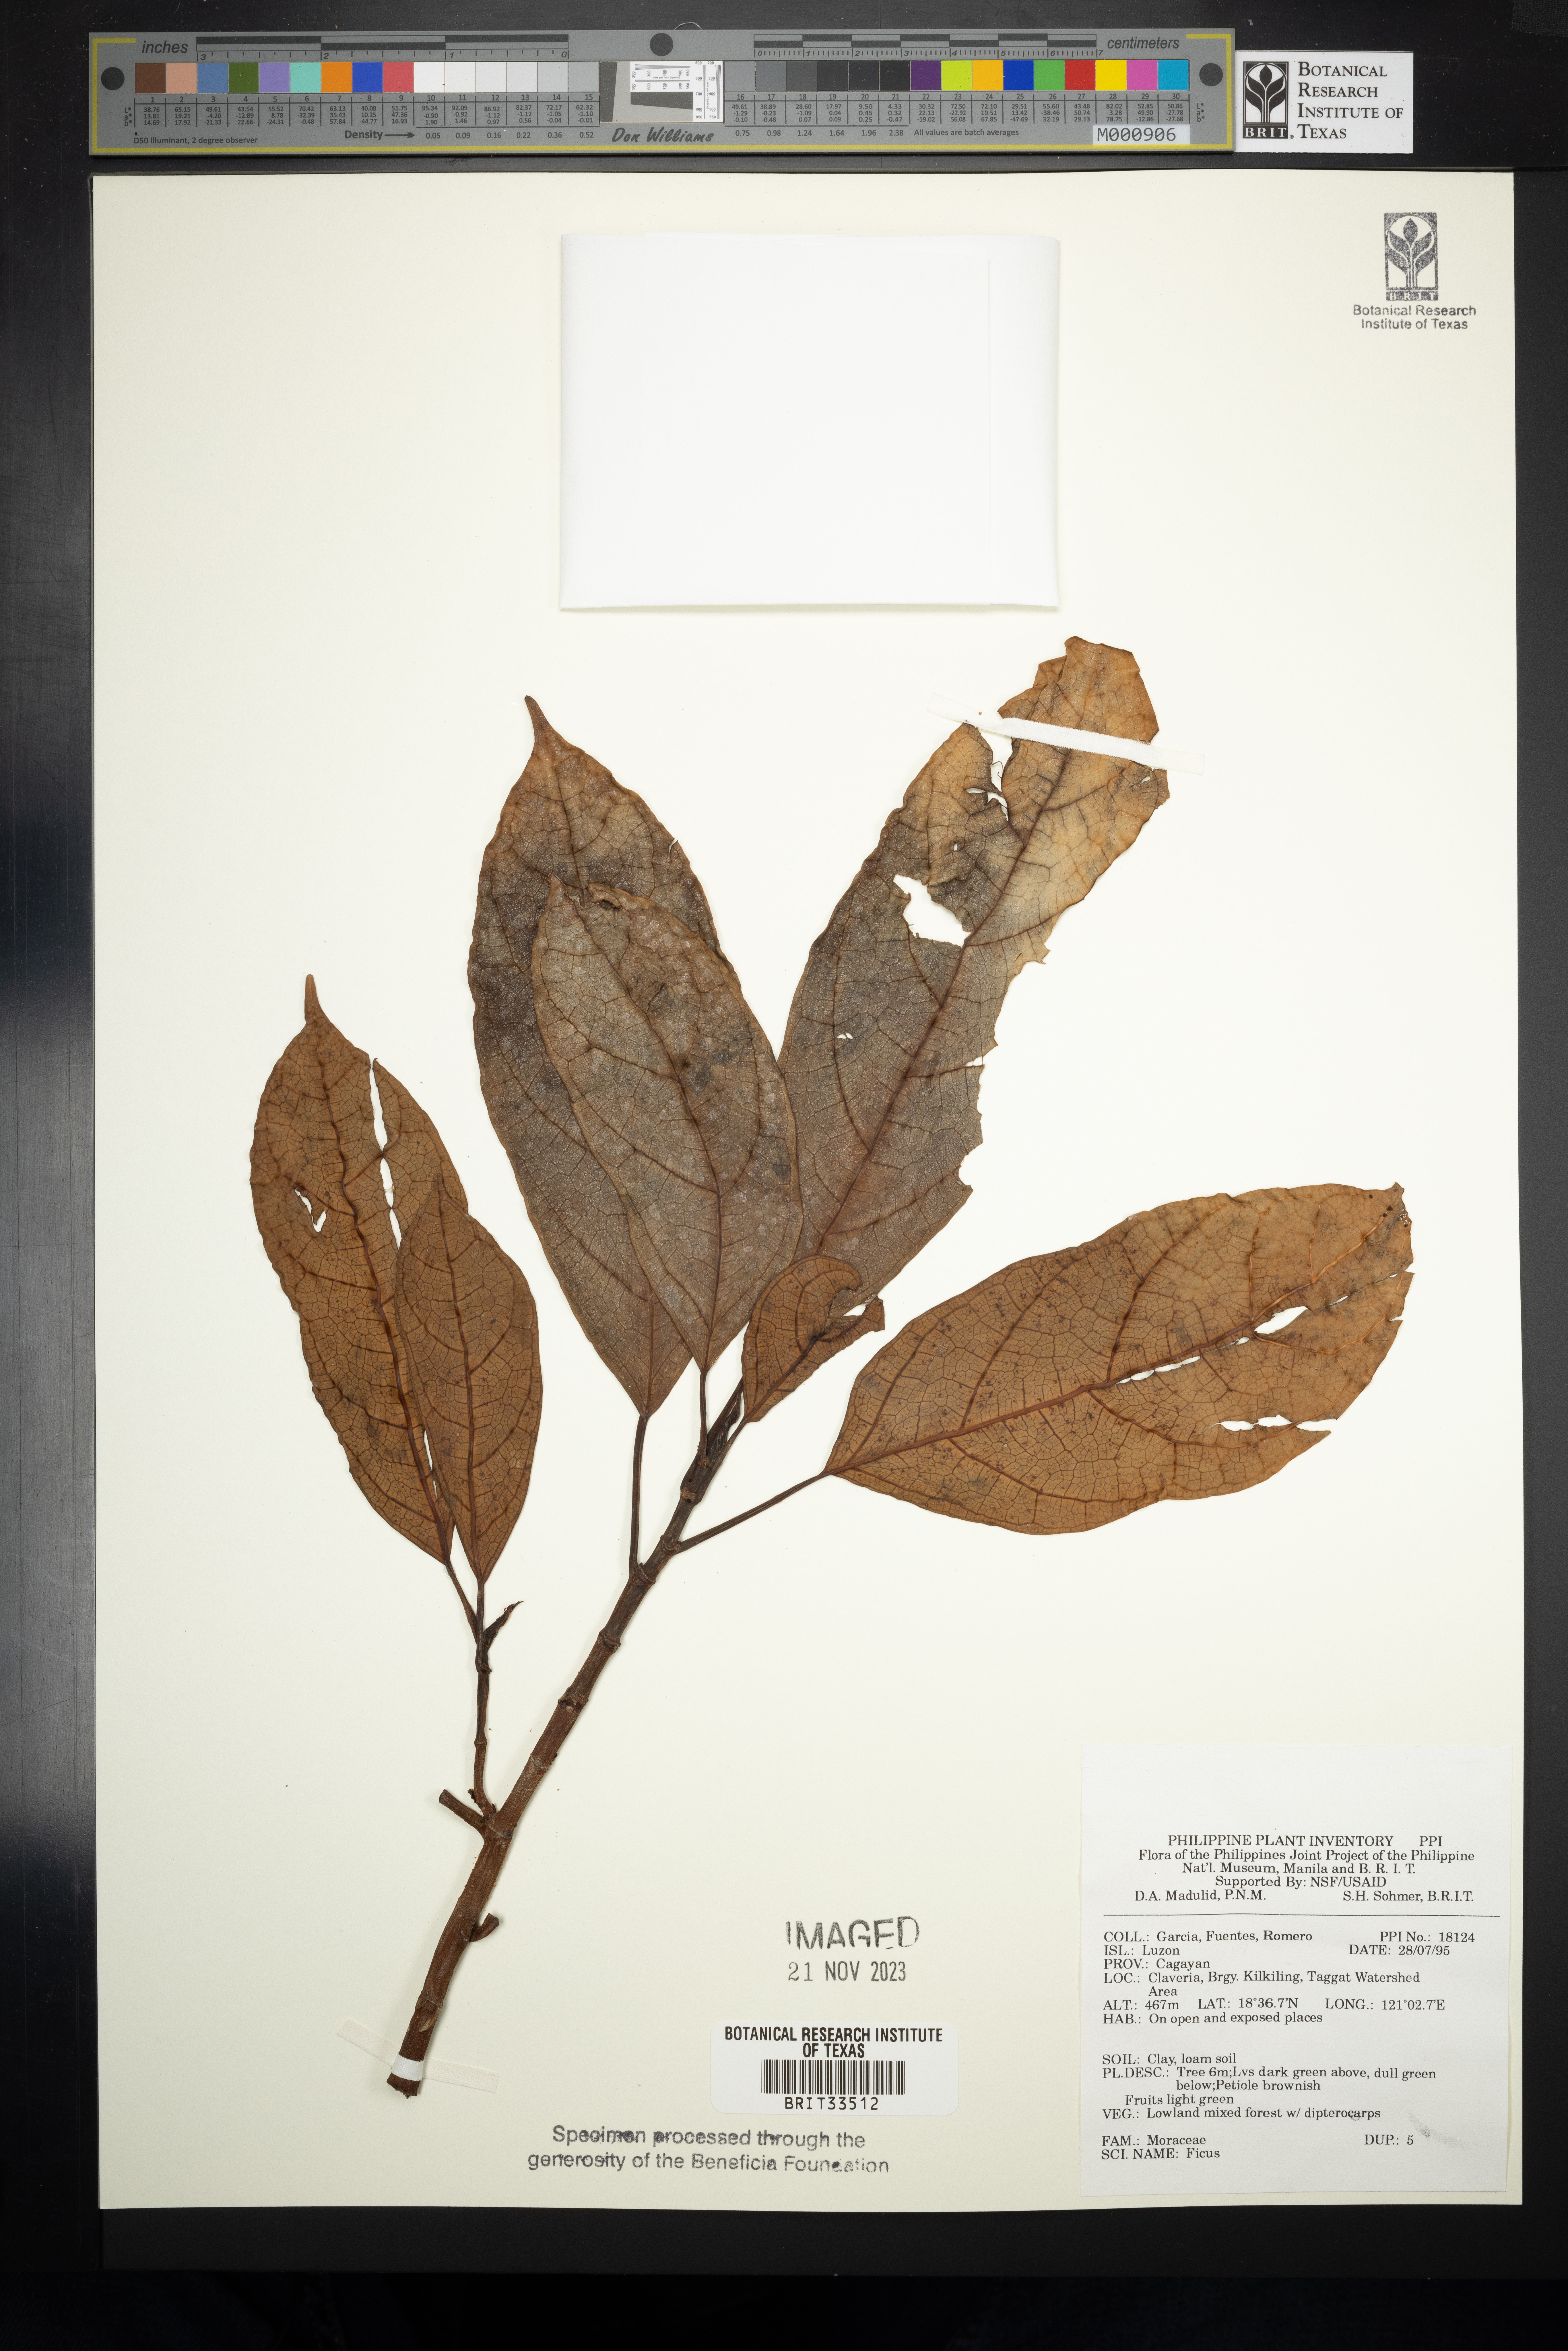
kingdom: Plantae
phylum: Tracheophyta
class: Magnoliopsida
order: Rosales
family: Moraceae
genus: Ficus
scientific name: Ficus
